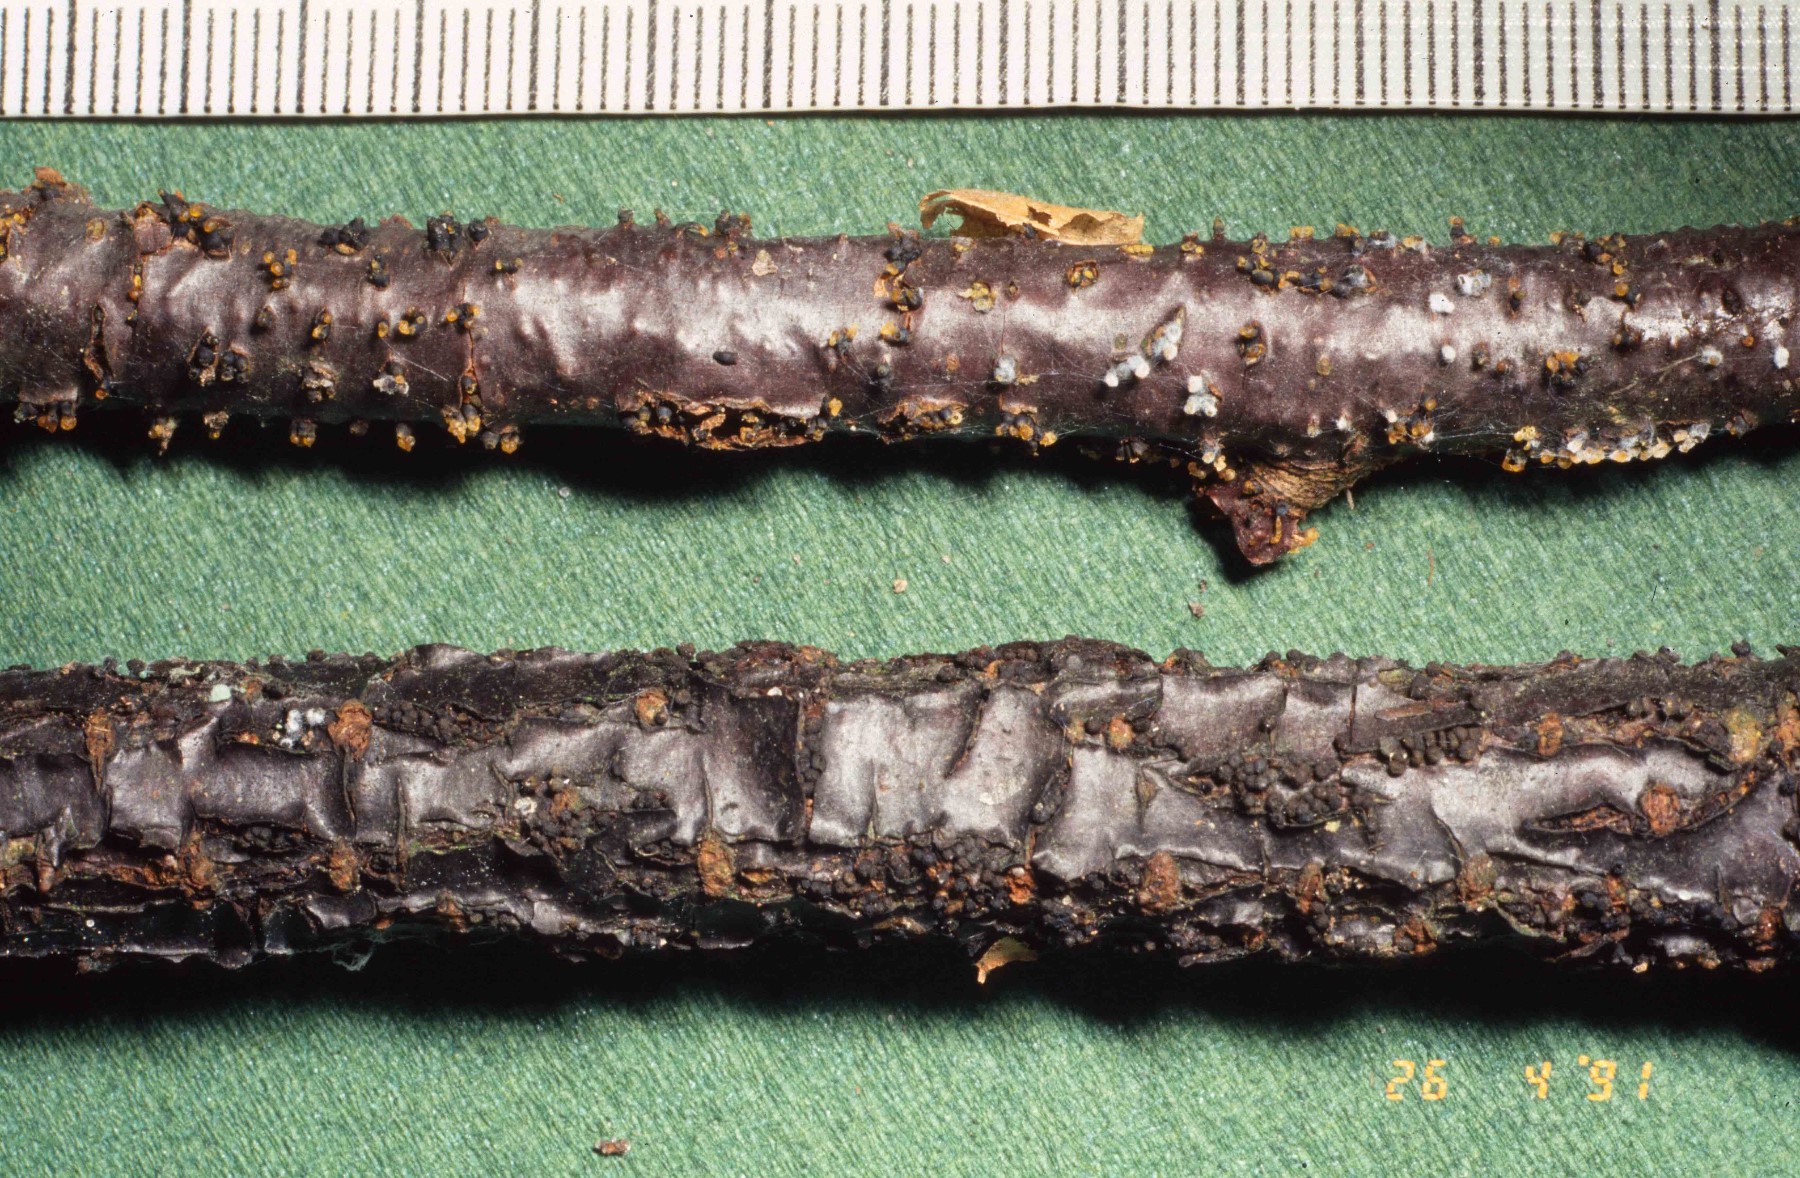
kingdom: Fungi
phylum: Ascomycota
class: Leotiomycetes
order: Helotiales
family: Godroniaceae
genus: Godronia
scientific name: Godronia ribis
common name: ribs-urneskive
